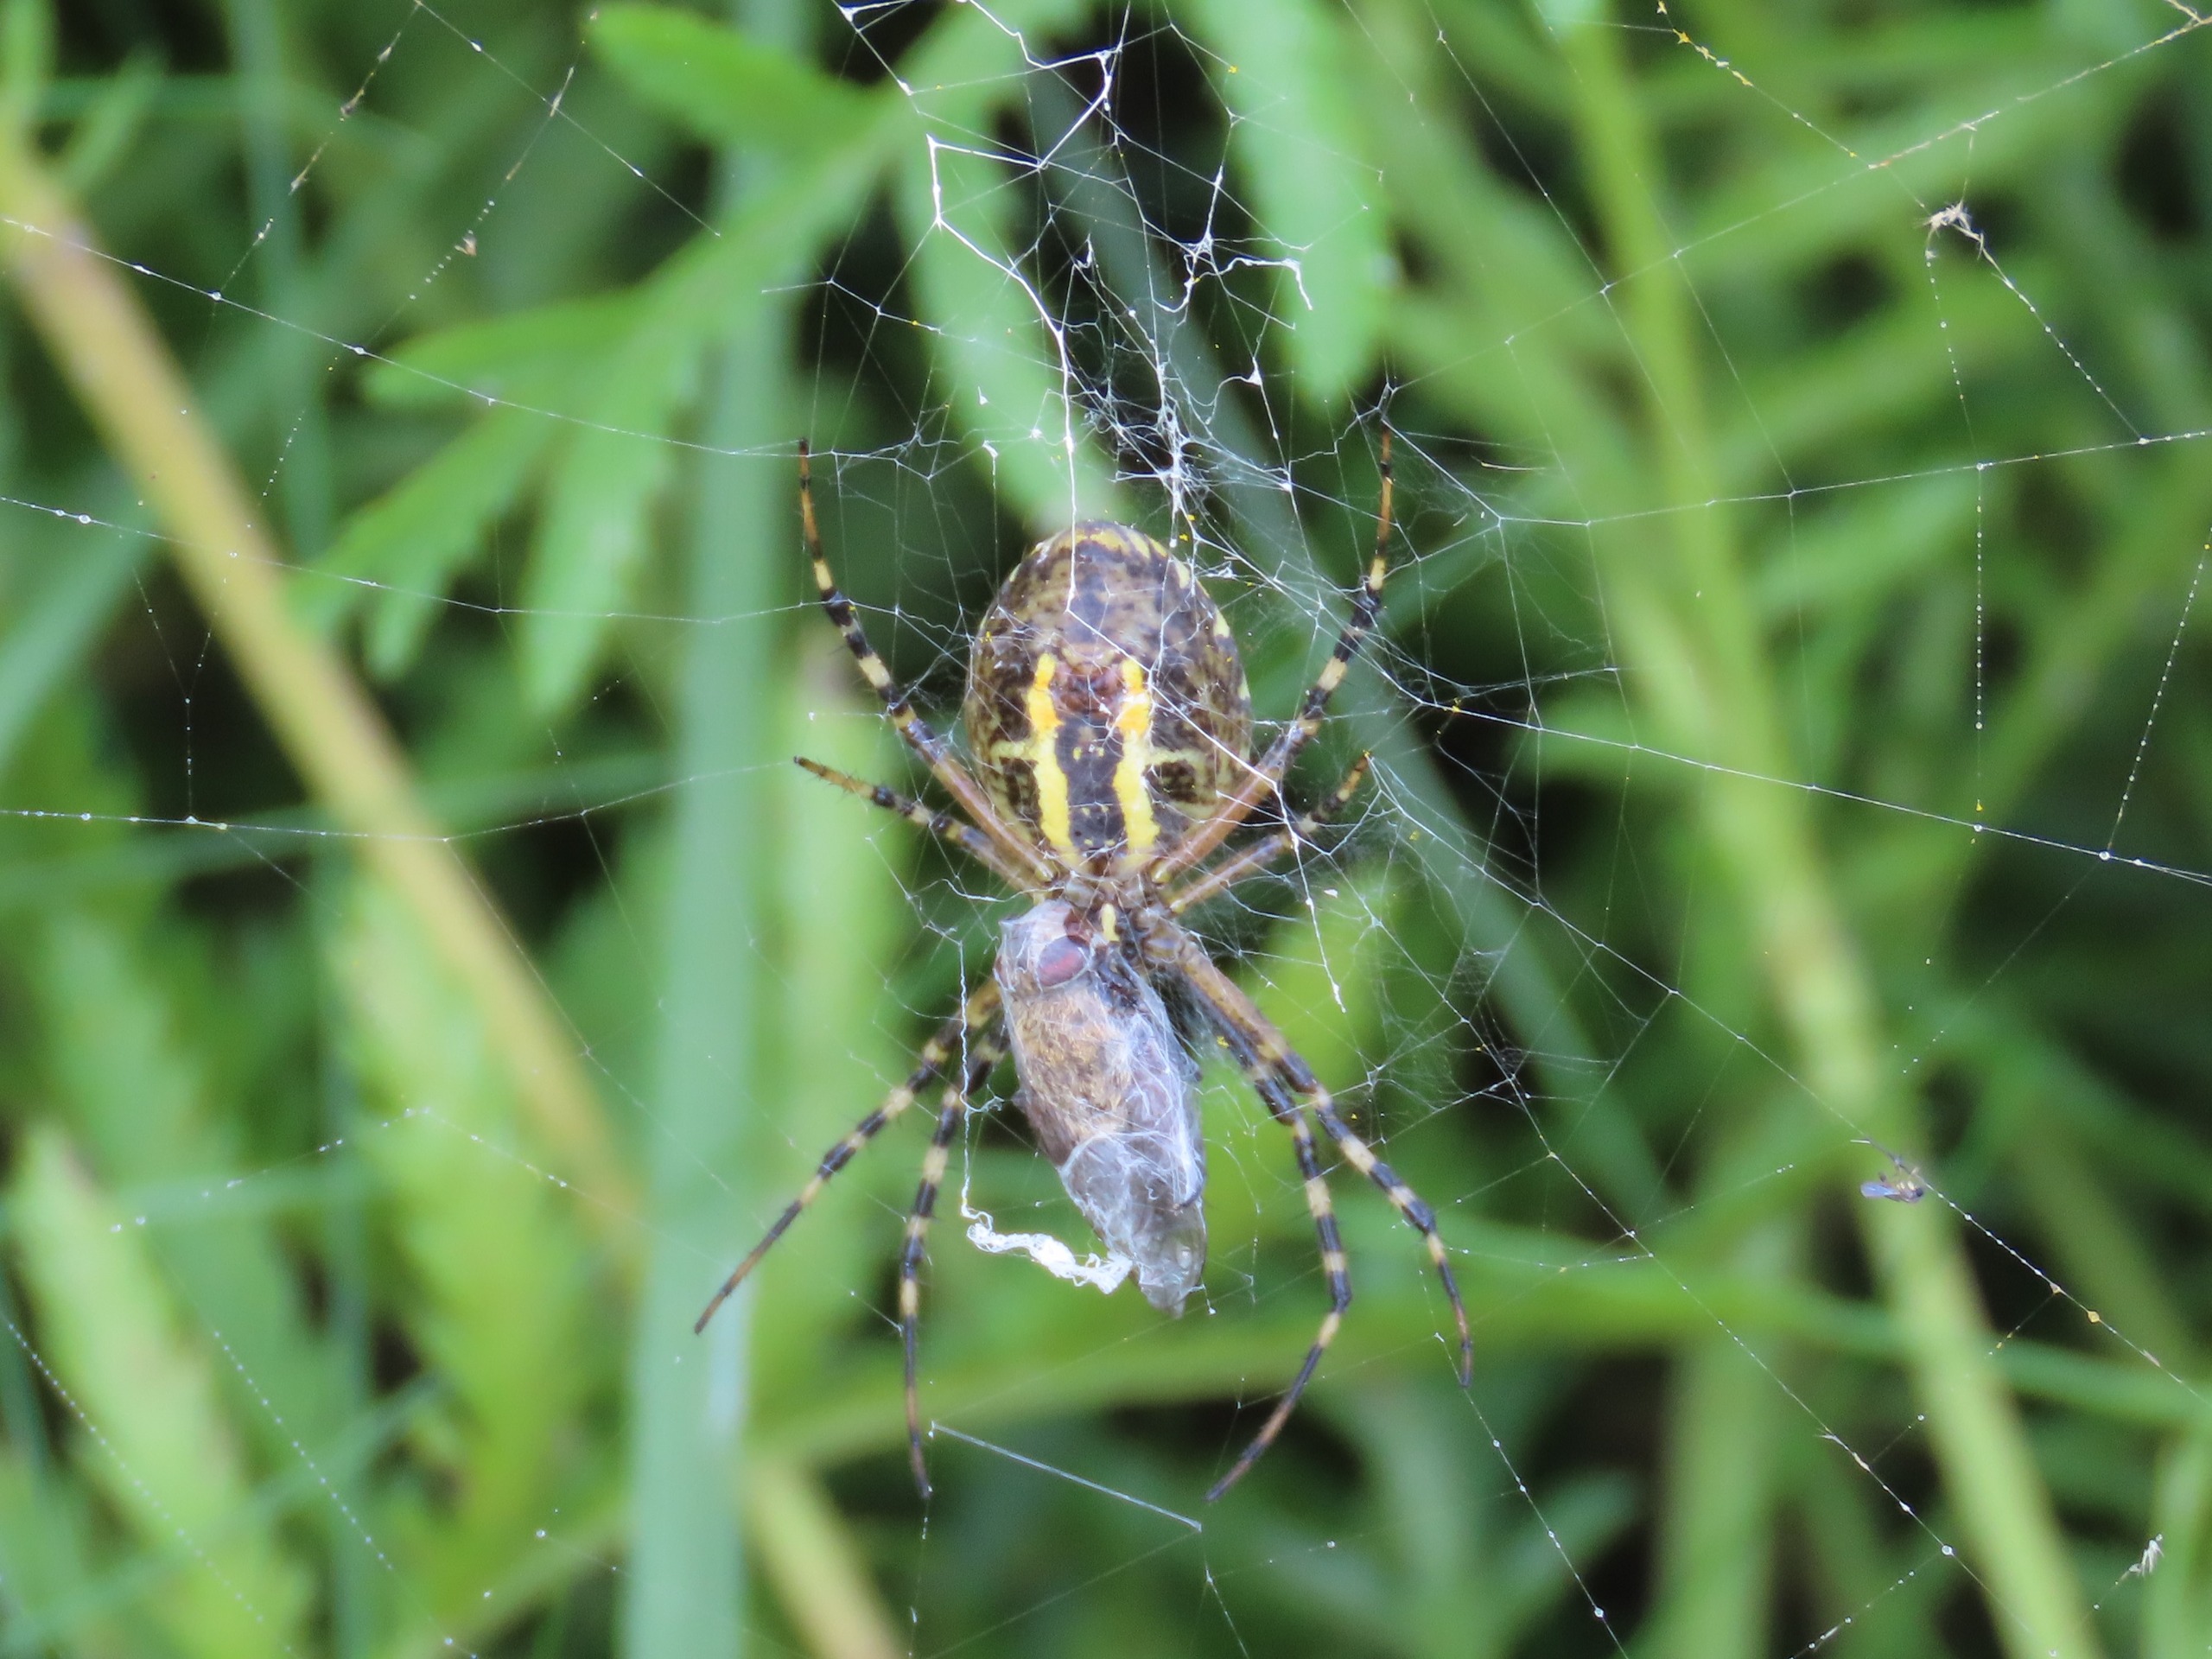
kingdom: Animalia
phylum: Arthropoda
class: Arachnida
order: Araneae
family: Araneidae
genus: Argiope
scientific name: Argiope bruennichi
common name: Hvepseedderkop
